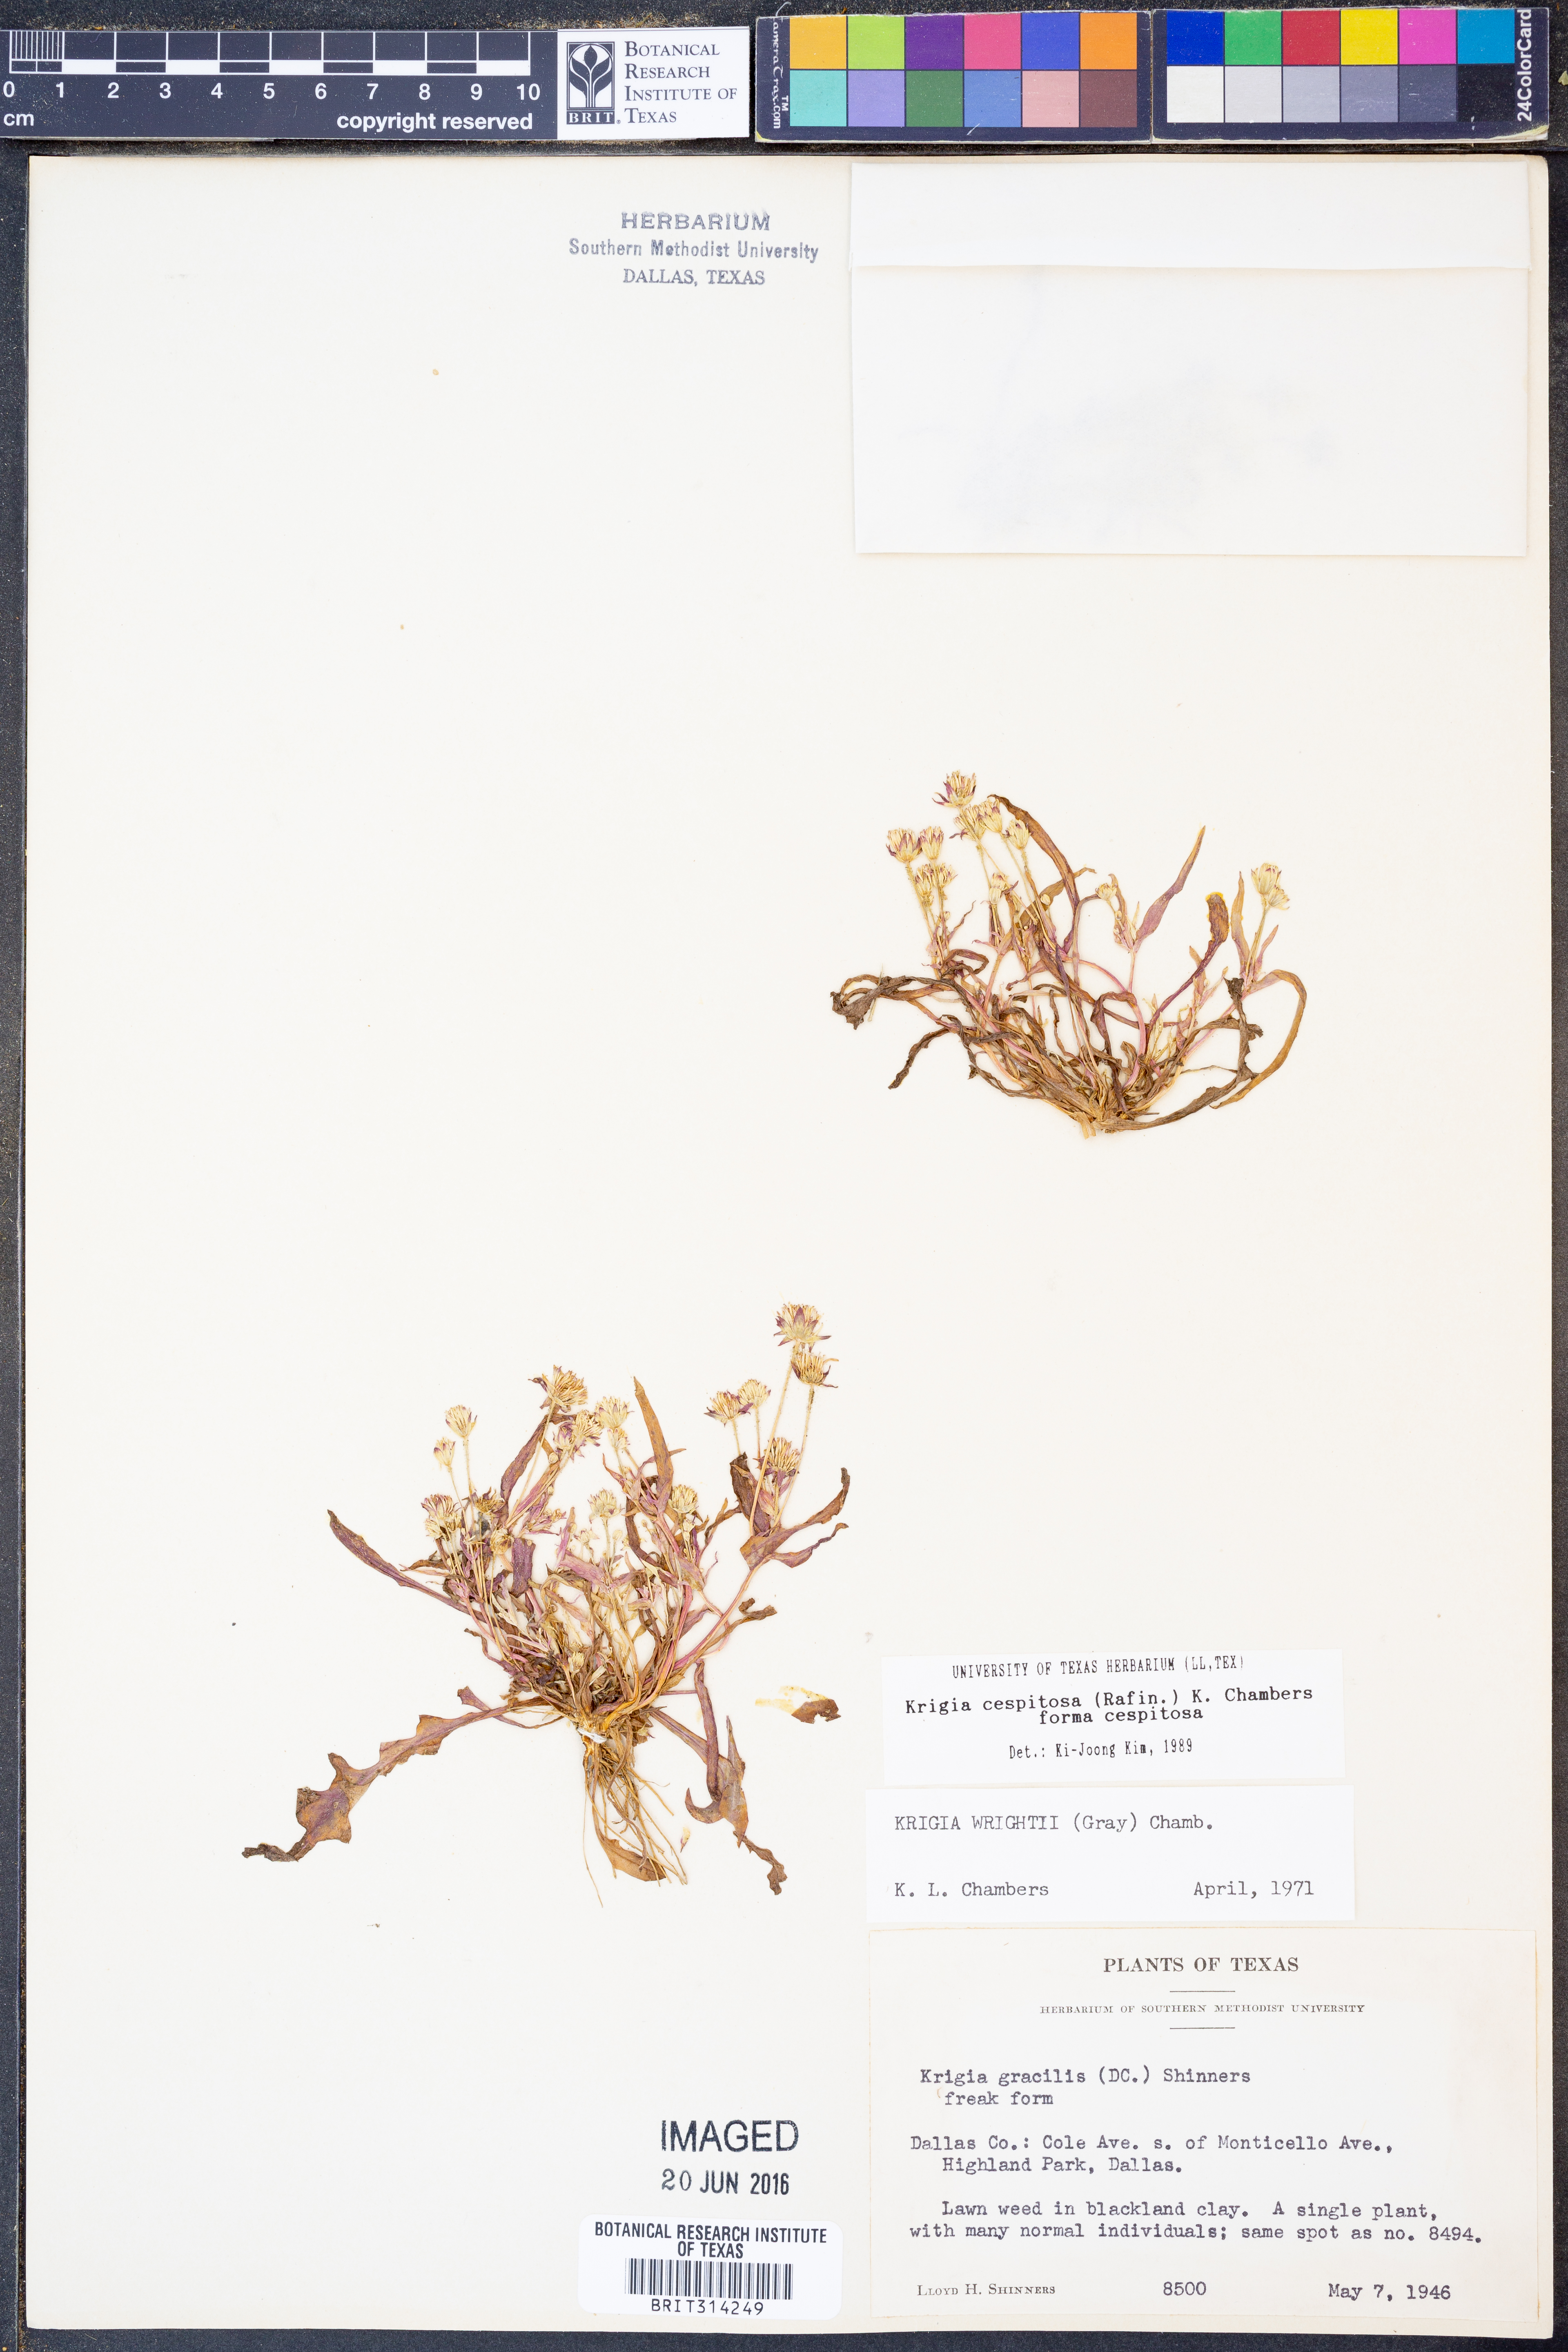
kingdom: Plantae
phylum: Tracheophyta
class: Magnoliopsida
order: Asterales
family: Asteraceae
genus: Krigia
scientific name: Krigia cespitosa
